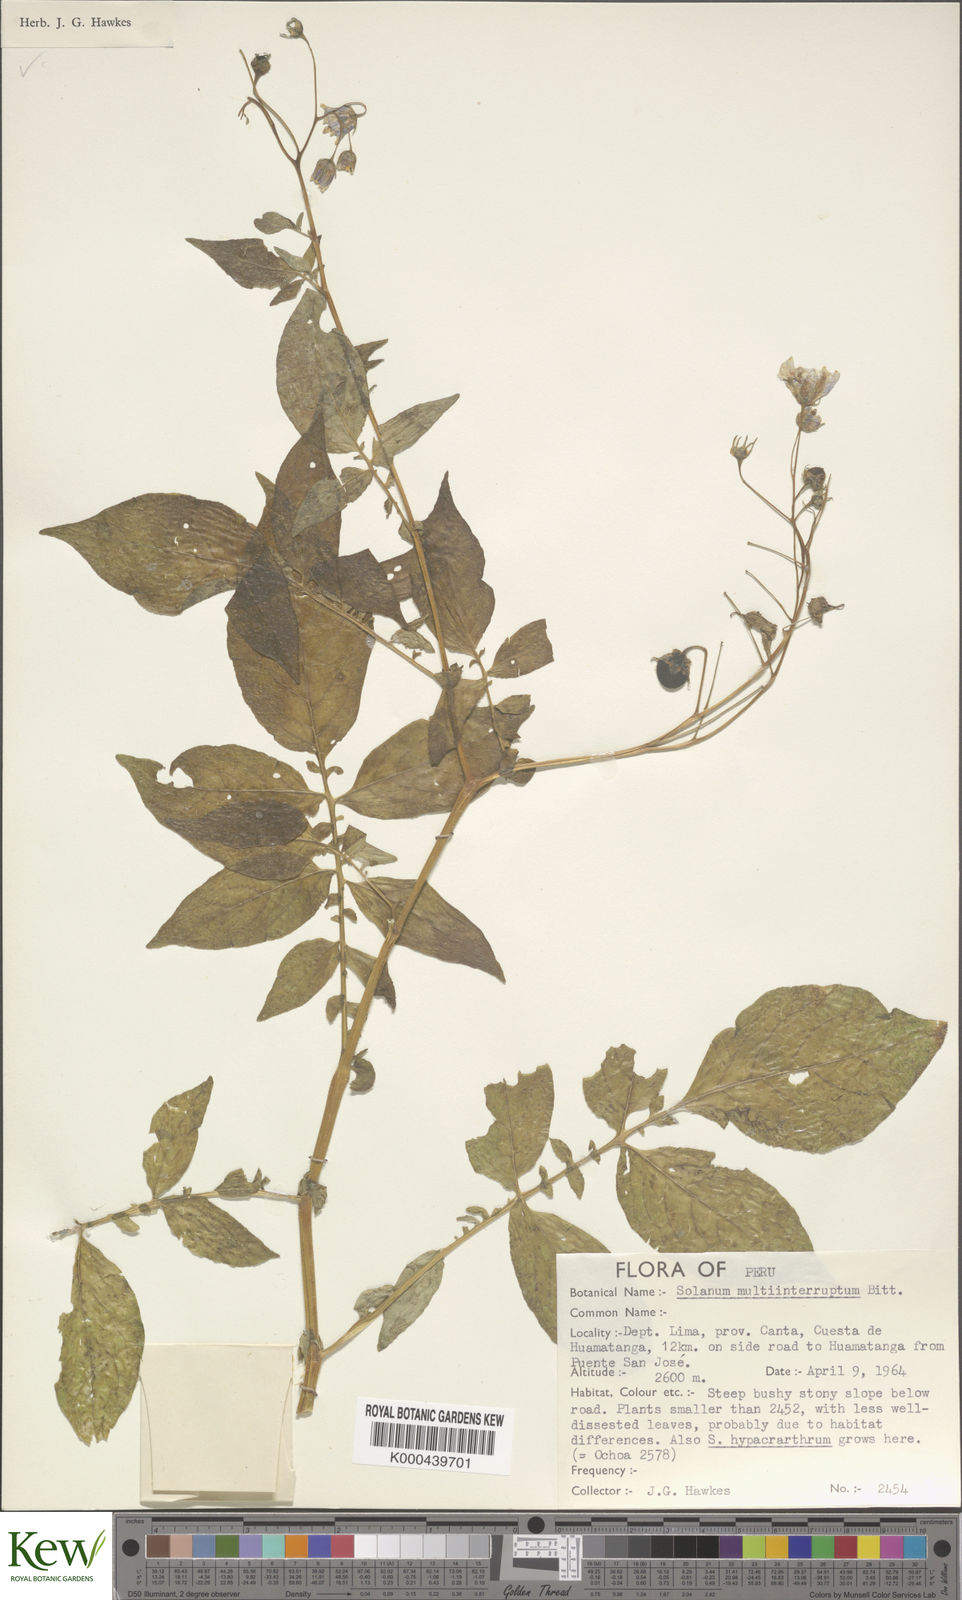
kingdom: Plantae
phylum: Tracheophyta
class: Magnoliopsida
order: Solanales
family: Solanaceae
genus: Solanum
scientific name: Solanum multiinterruptum
